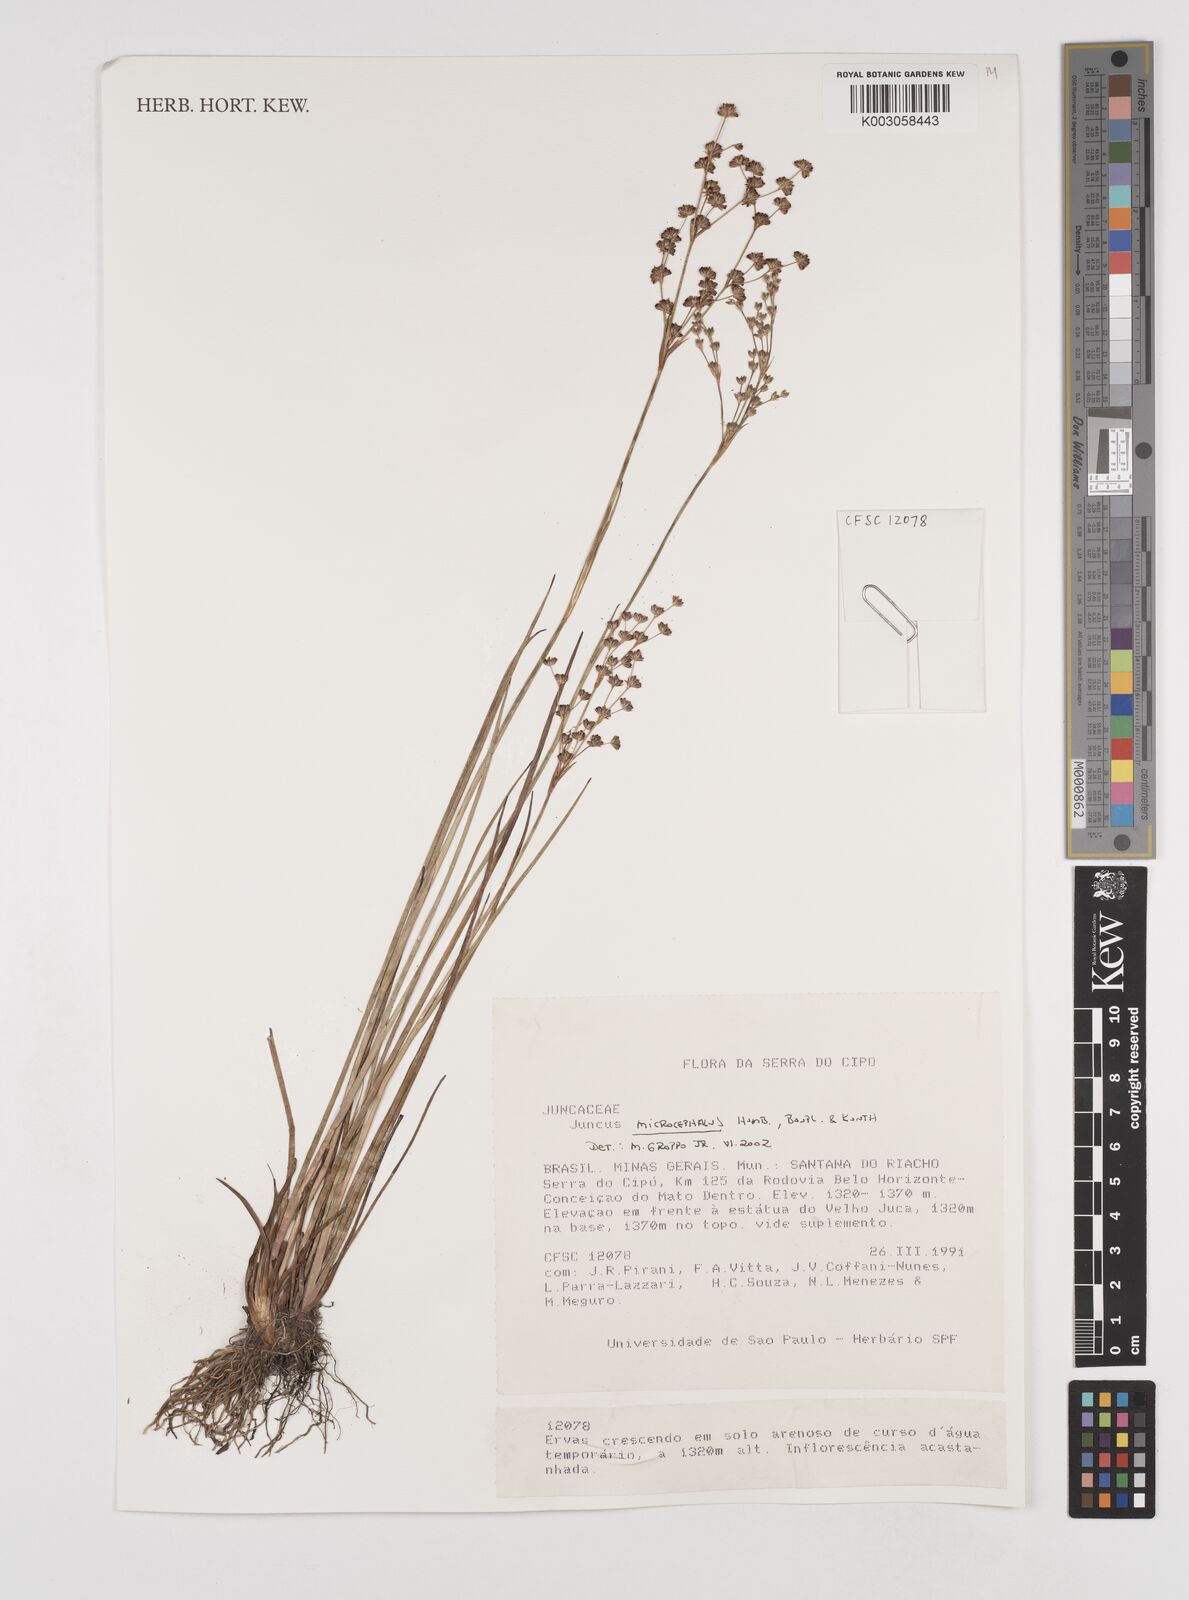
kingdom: Plantae
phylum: Tracheophyta
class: Liliopsida
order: Poales
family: Juncaceae
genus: Juncus
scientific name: Juncus microcephalus
